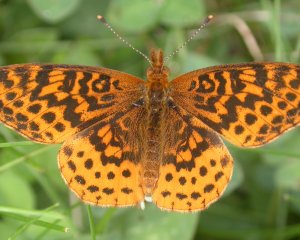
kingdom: Animalia
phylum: Arthropoda
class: Insecta
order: Lepidoptera
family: Nymphalidae
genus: Clossiana
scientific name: Clossiana toddi
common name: Meadow Fritillary
